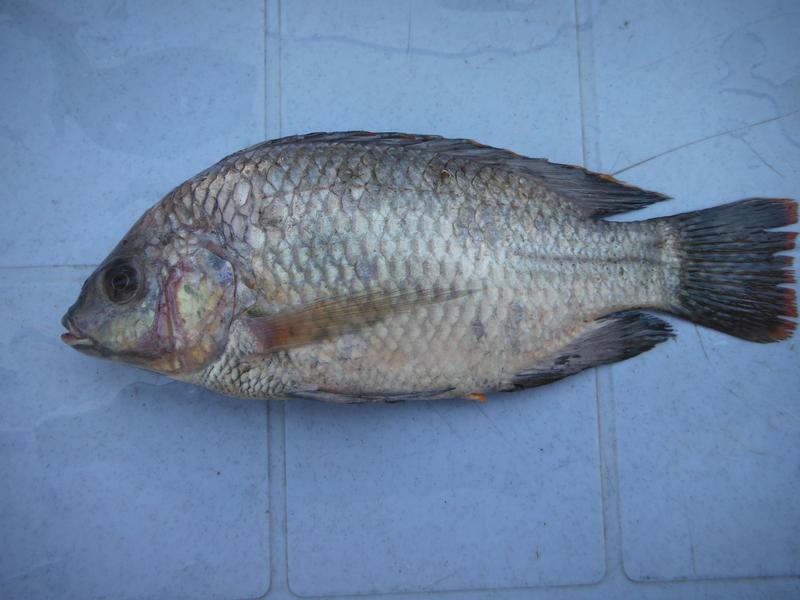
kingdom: Animalia
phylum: Chordata
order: Perciformes
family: Cichlidae
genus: Oreochromis
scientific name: Oreochromis esculentus
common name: Carp
